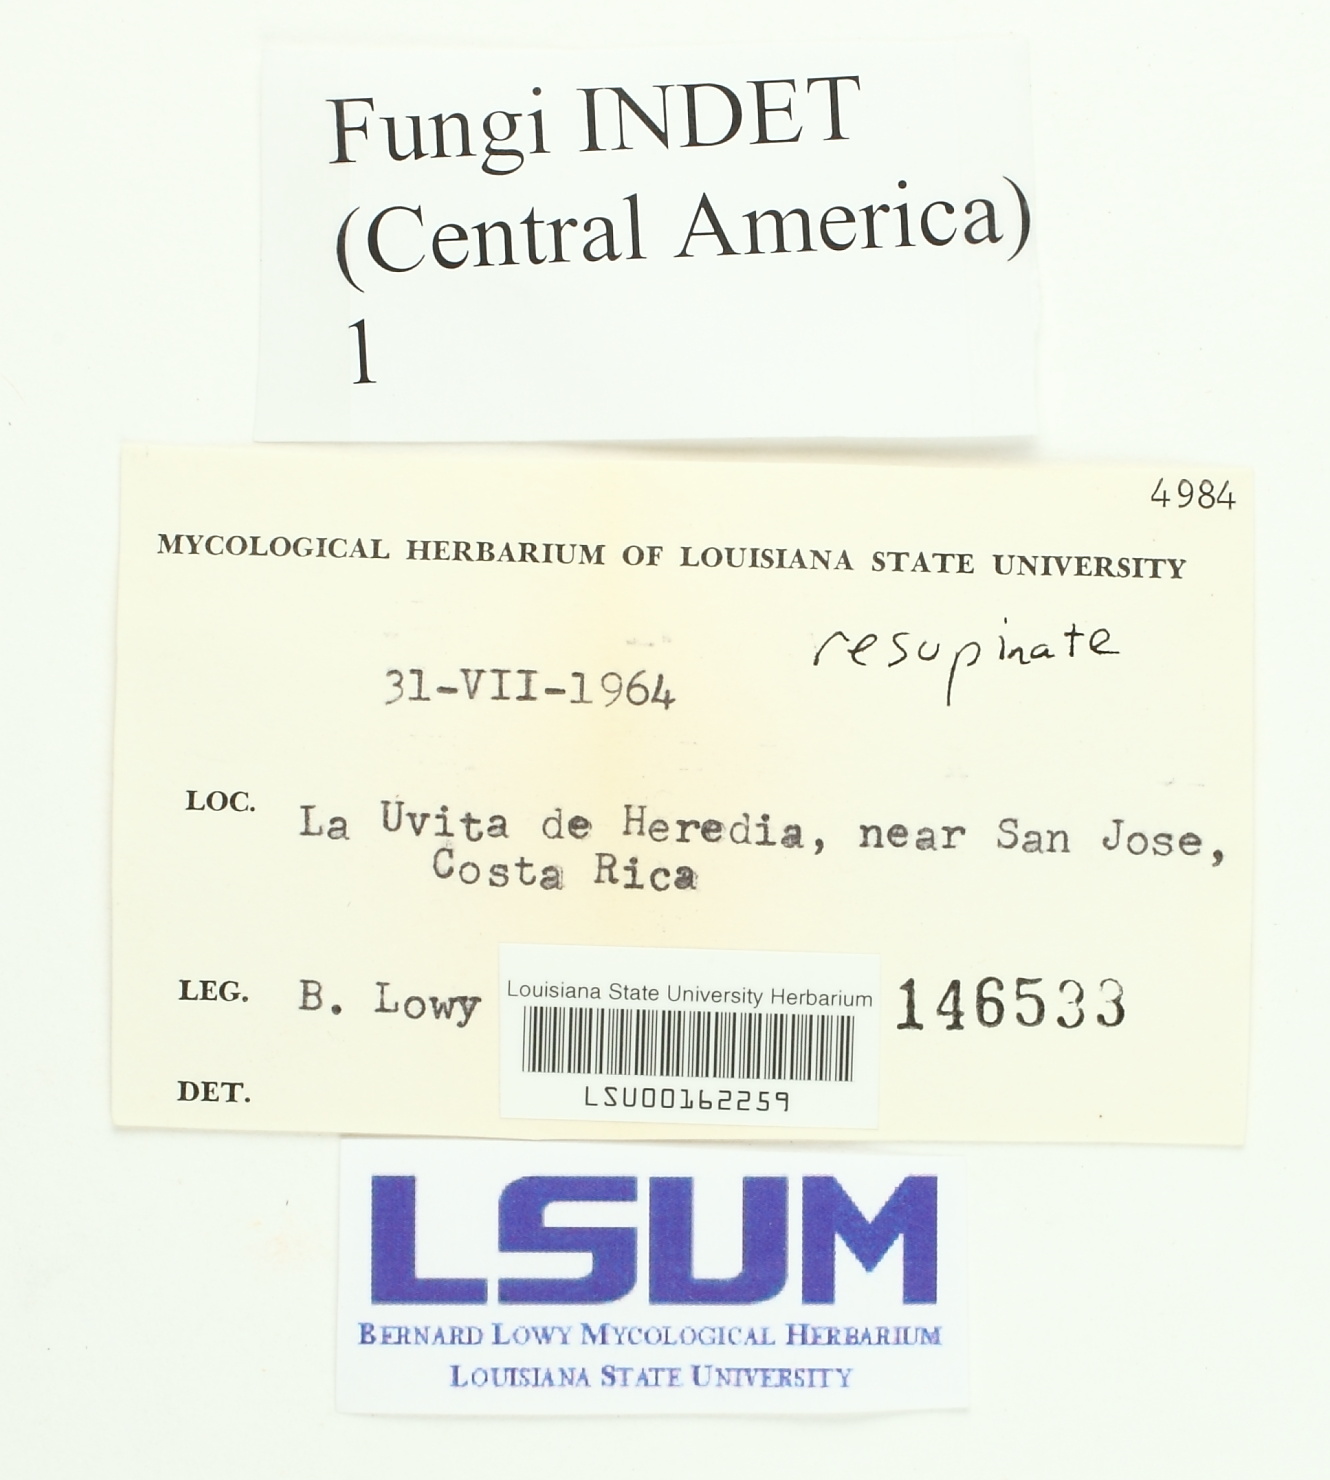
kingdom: Fungi
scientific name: Fungi
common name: Fungi
